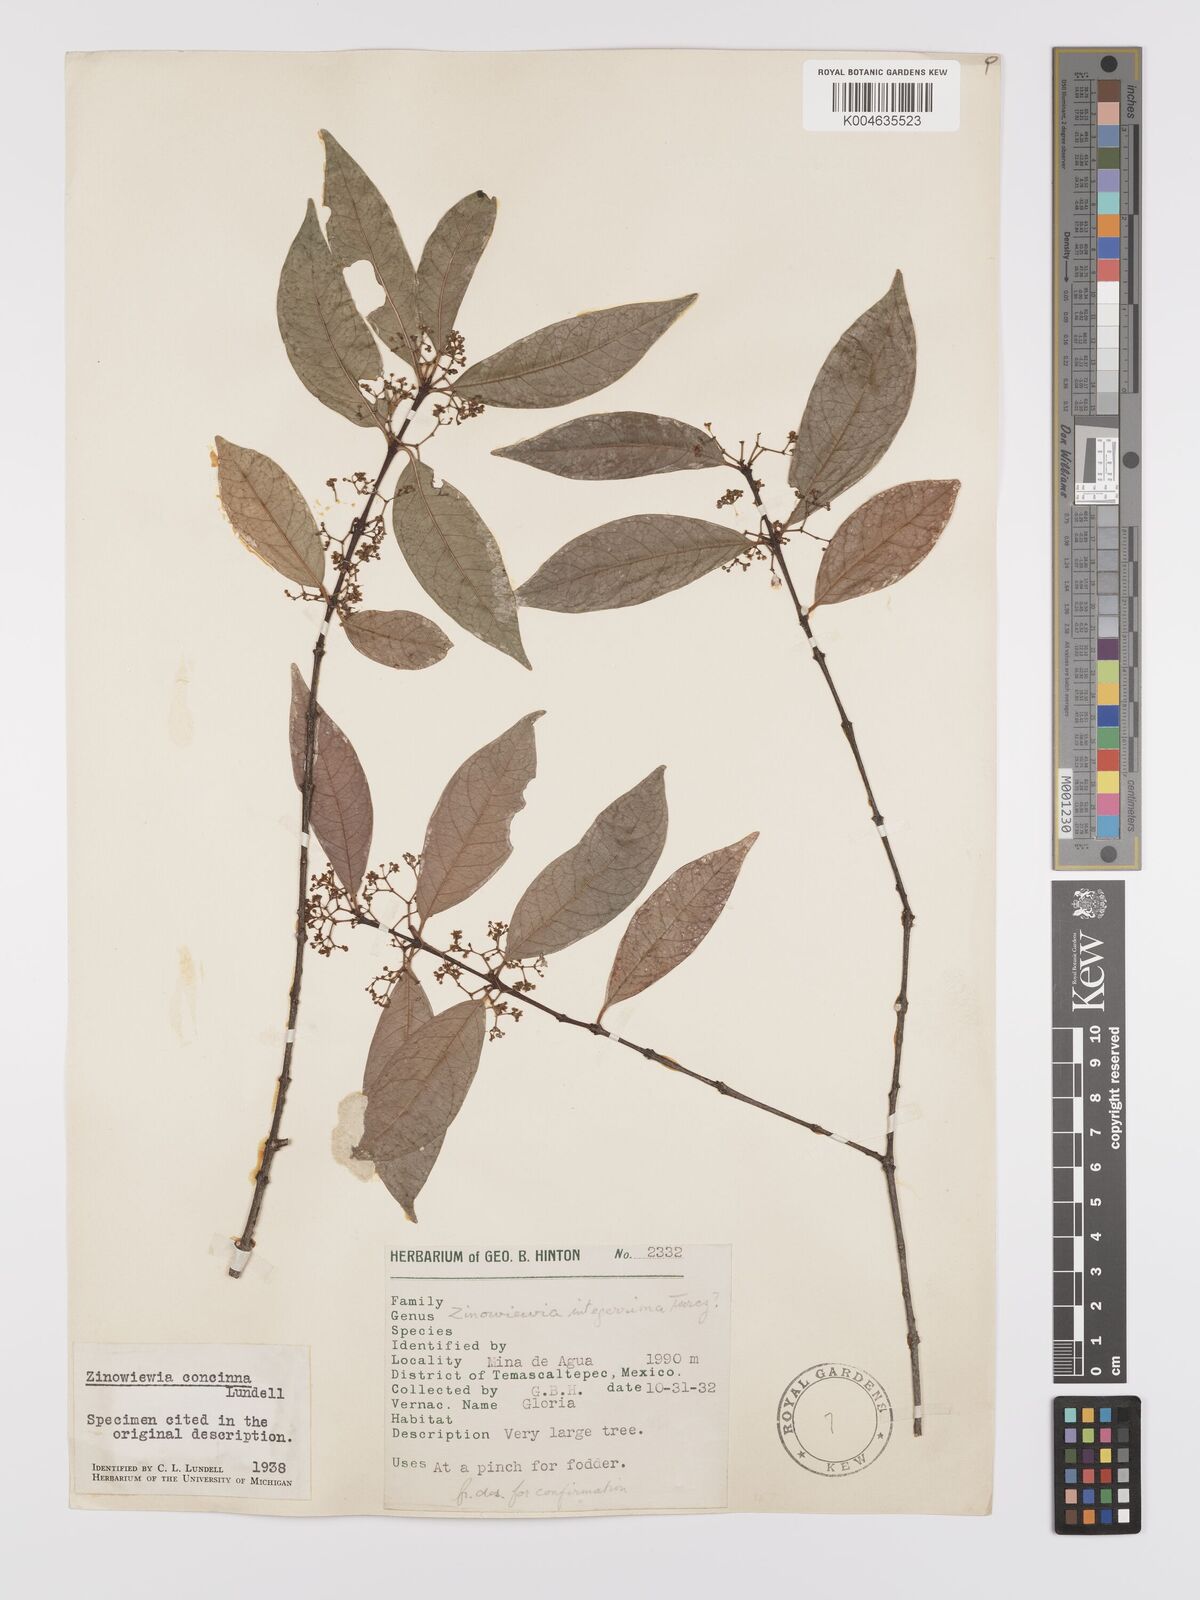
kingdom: Plantae
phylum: Tracheophyta
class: Magnoliopsida
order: Celastrales
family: Celastraceae
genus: Zinowiewia
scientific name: Zinowiewia concinna
